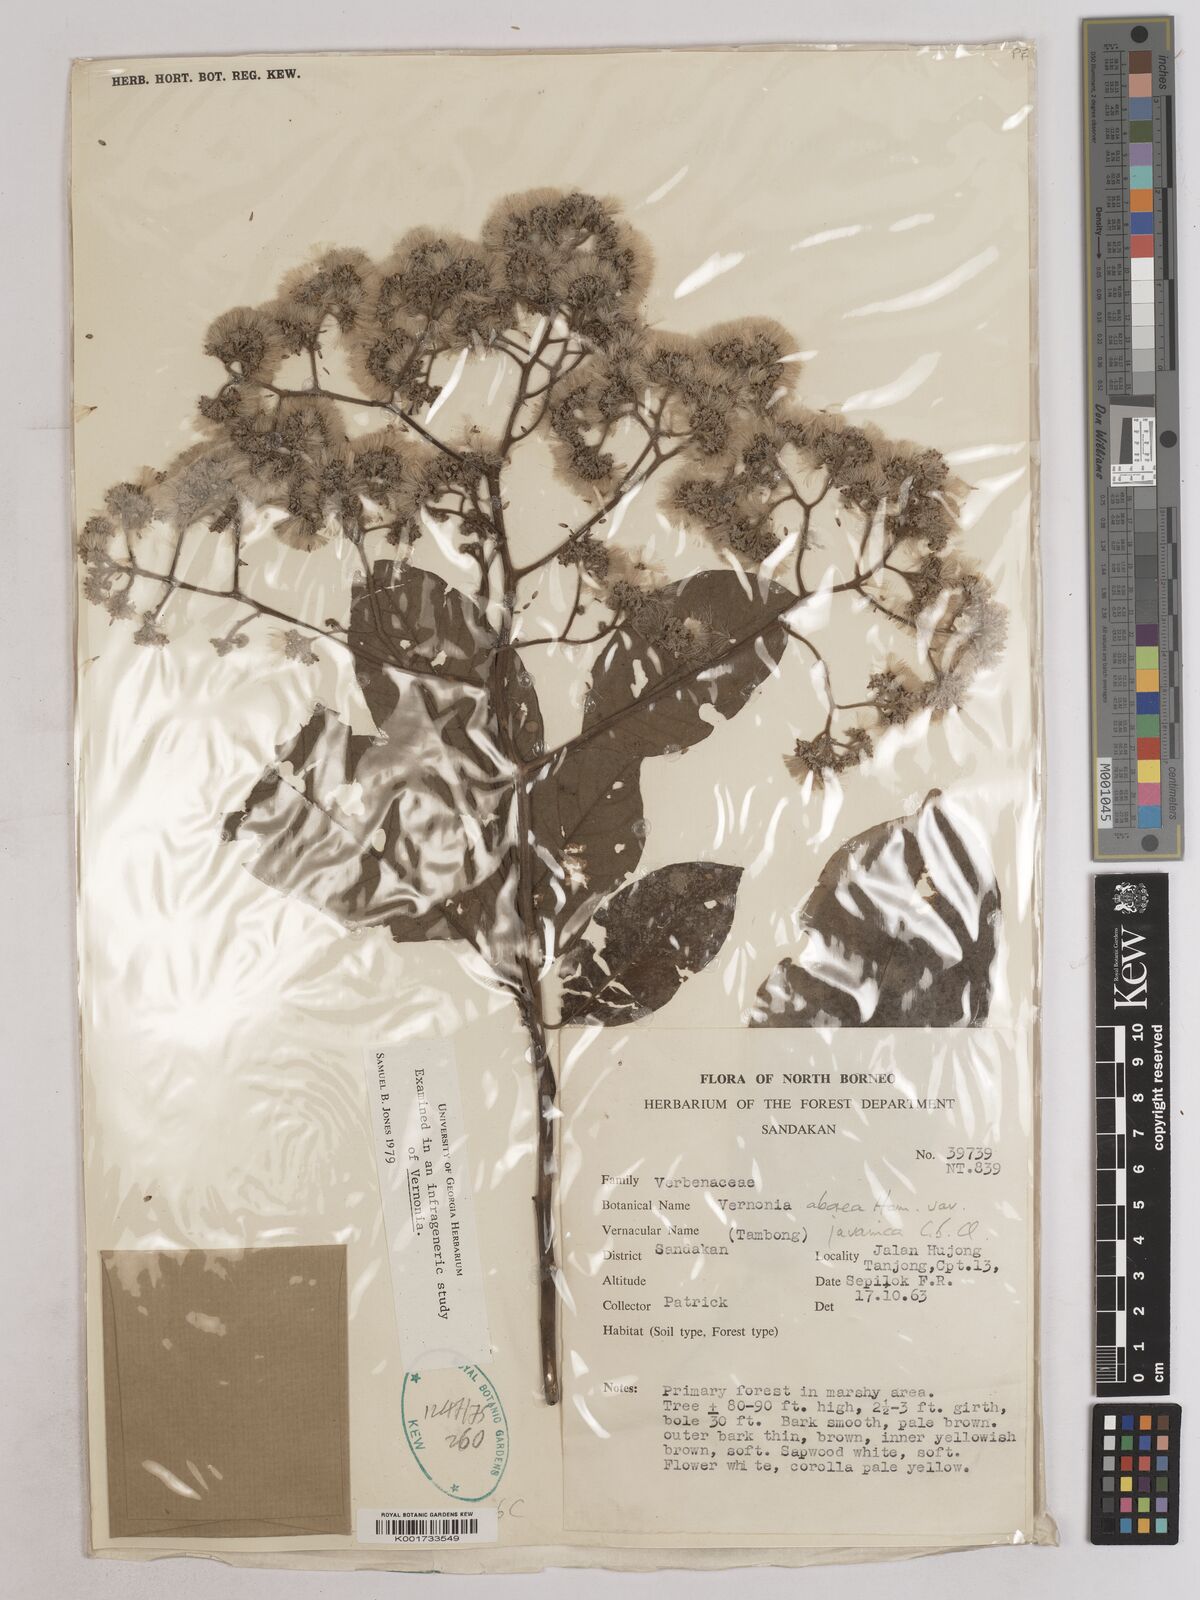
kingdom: Plantae
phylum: Tracheophyta
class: Magnoliopsida
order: Asterales
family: Asteraceae
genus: Strobocalyx
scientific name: Strobocalyx arborea
